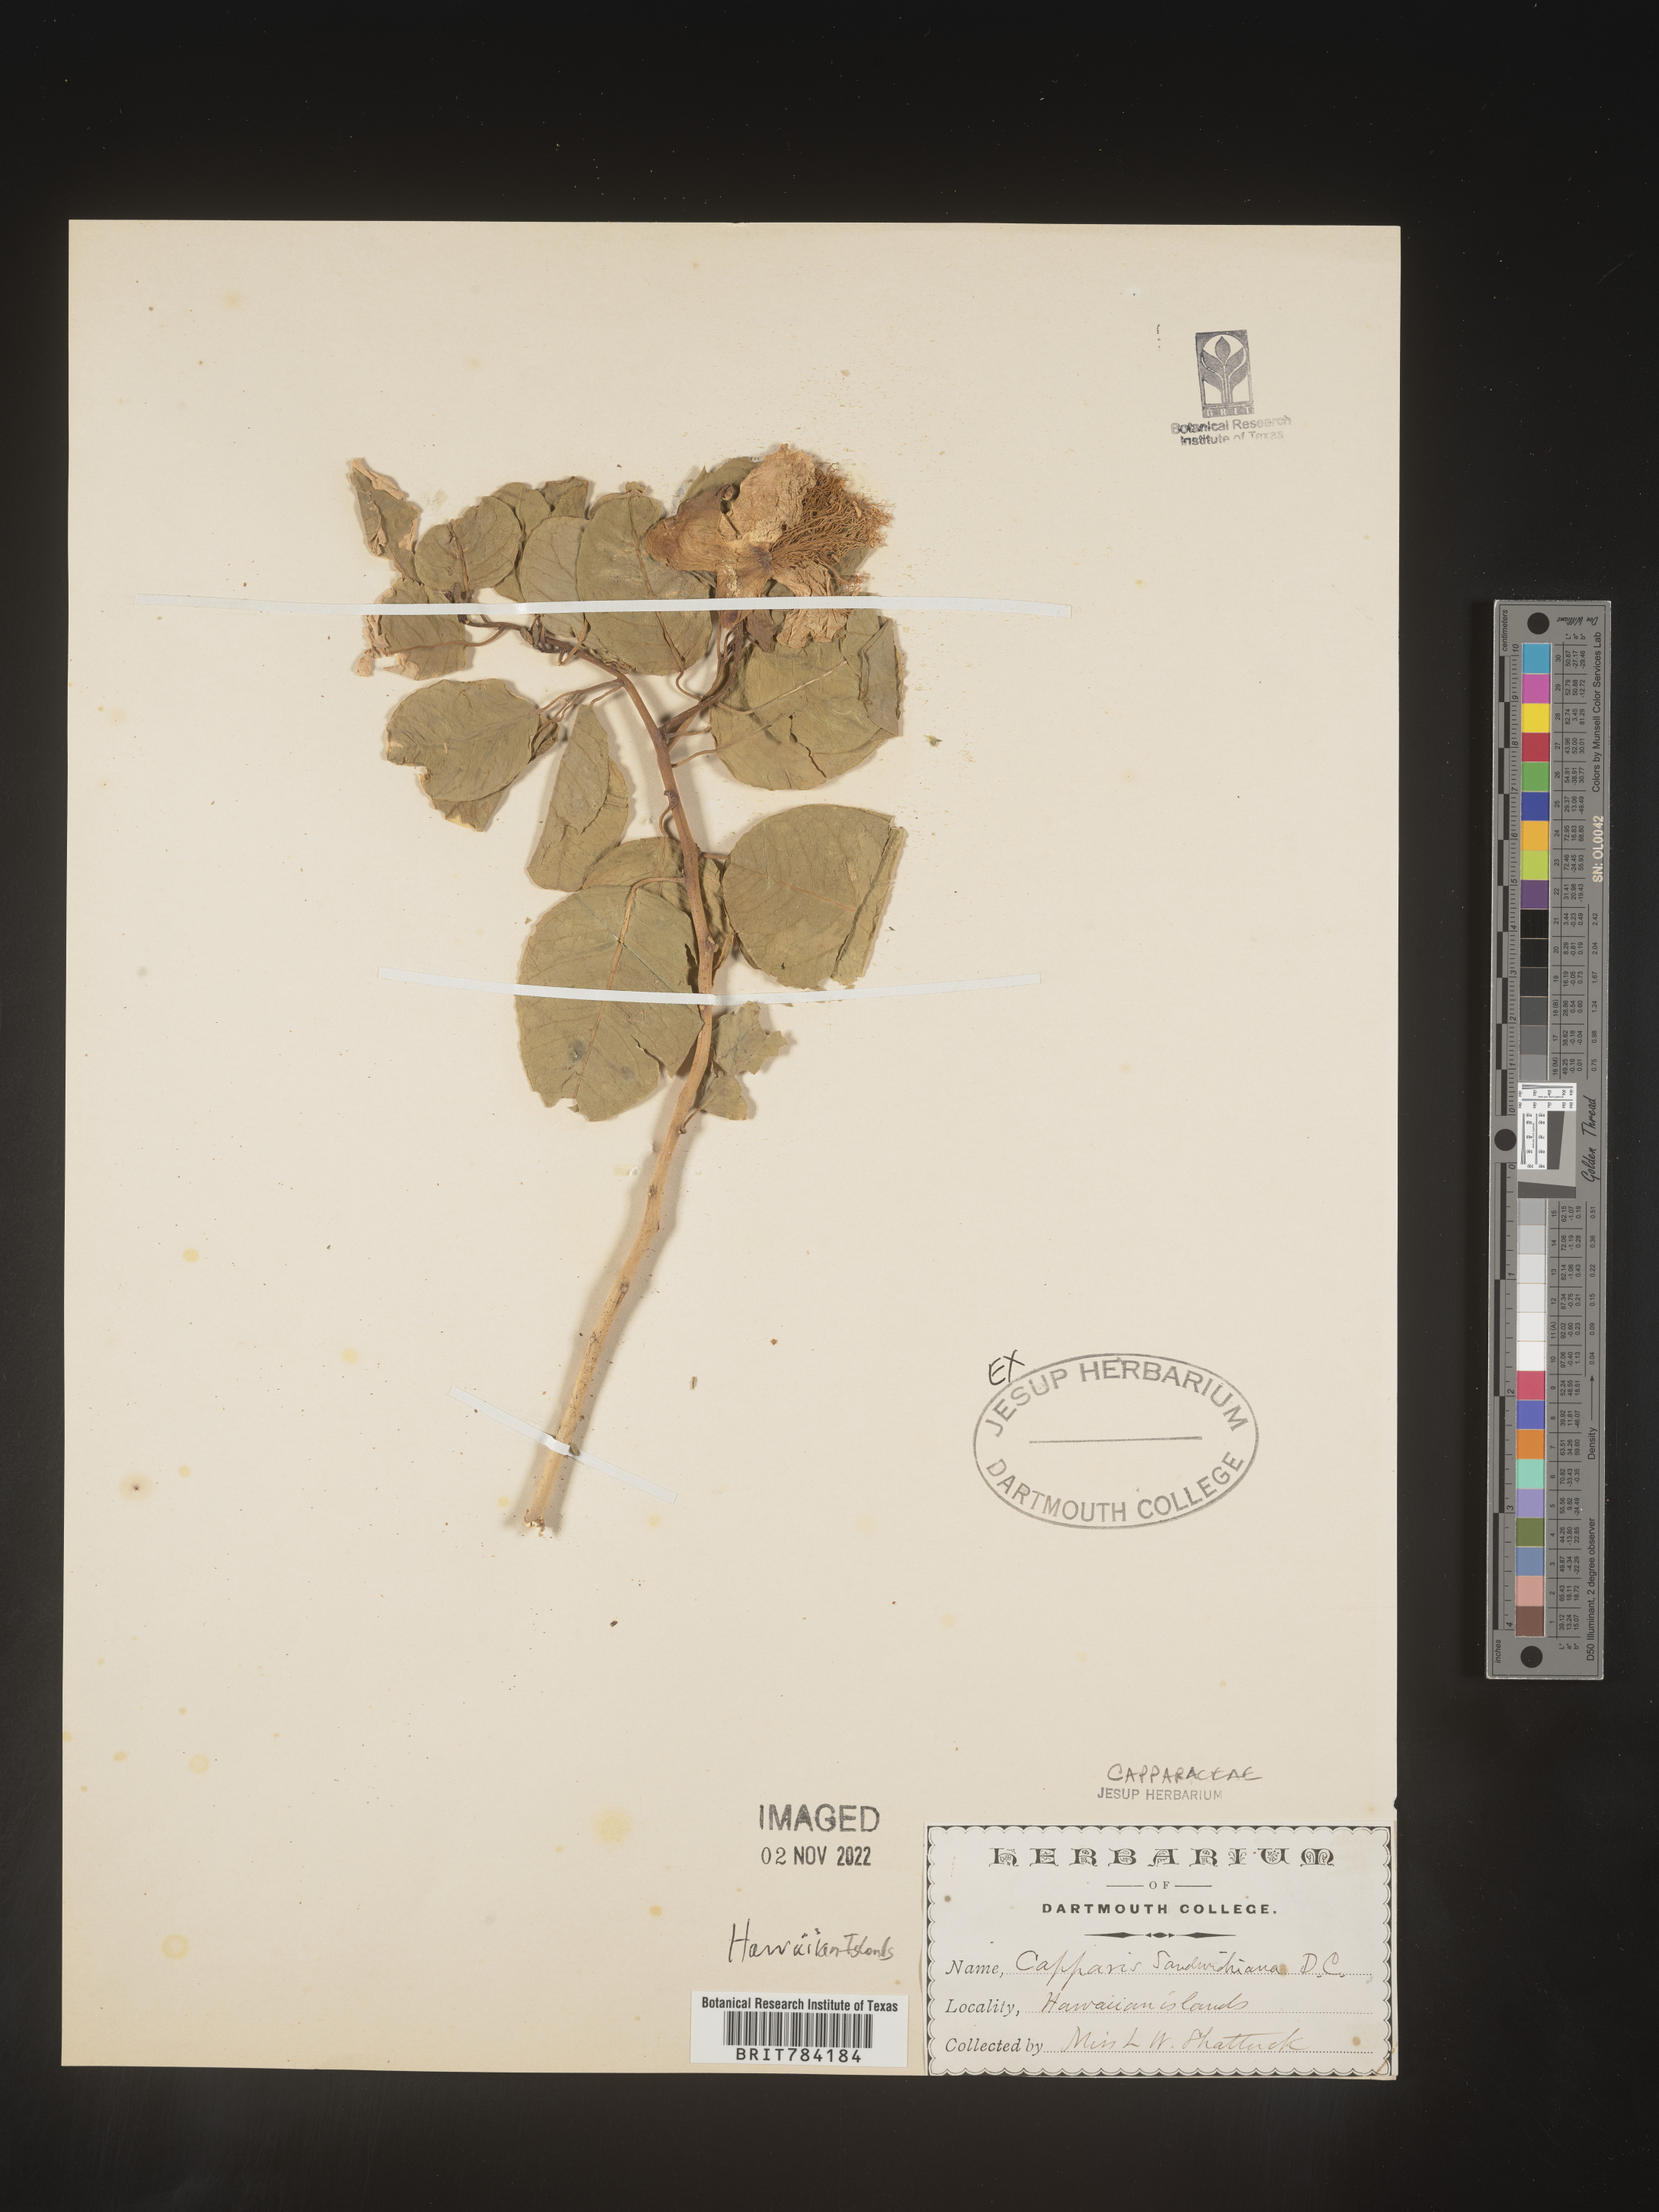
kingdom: Plantae
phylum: Tracheophyta
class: Magnoliopsida
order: Brassicales
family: Capparaceae
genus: Capparis
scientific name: Capparis
